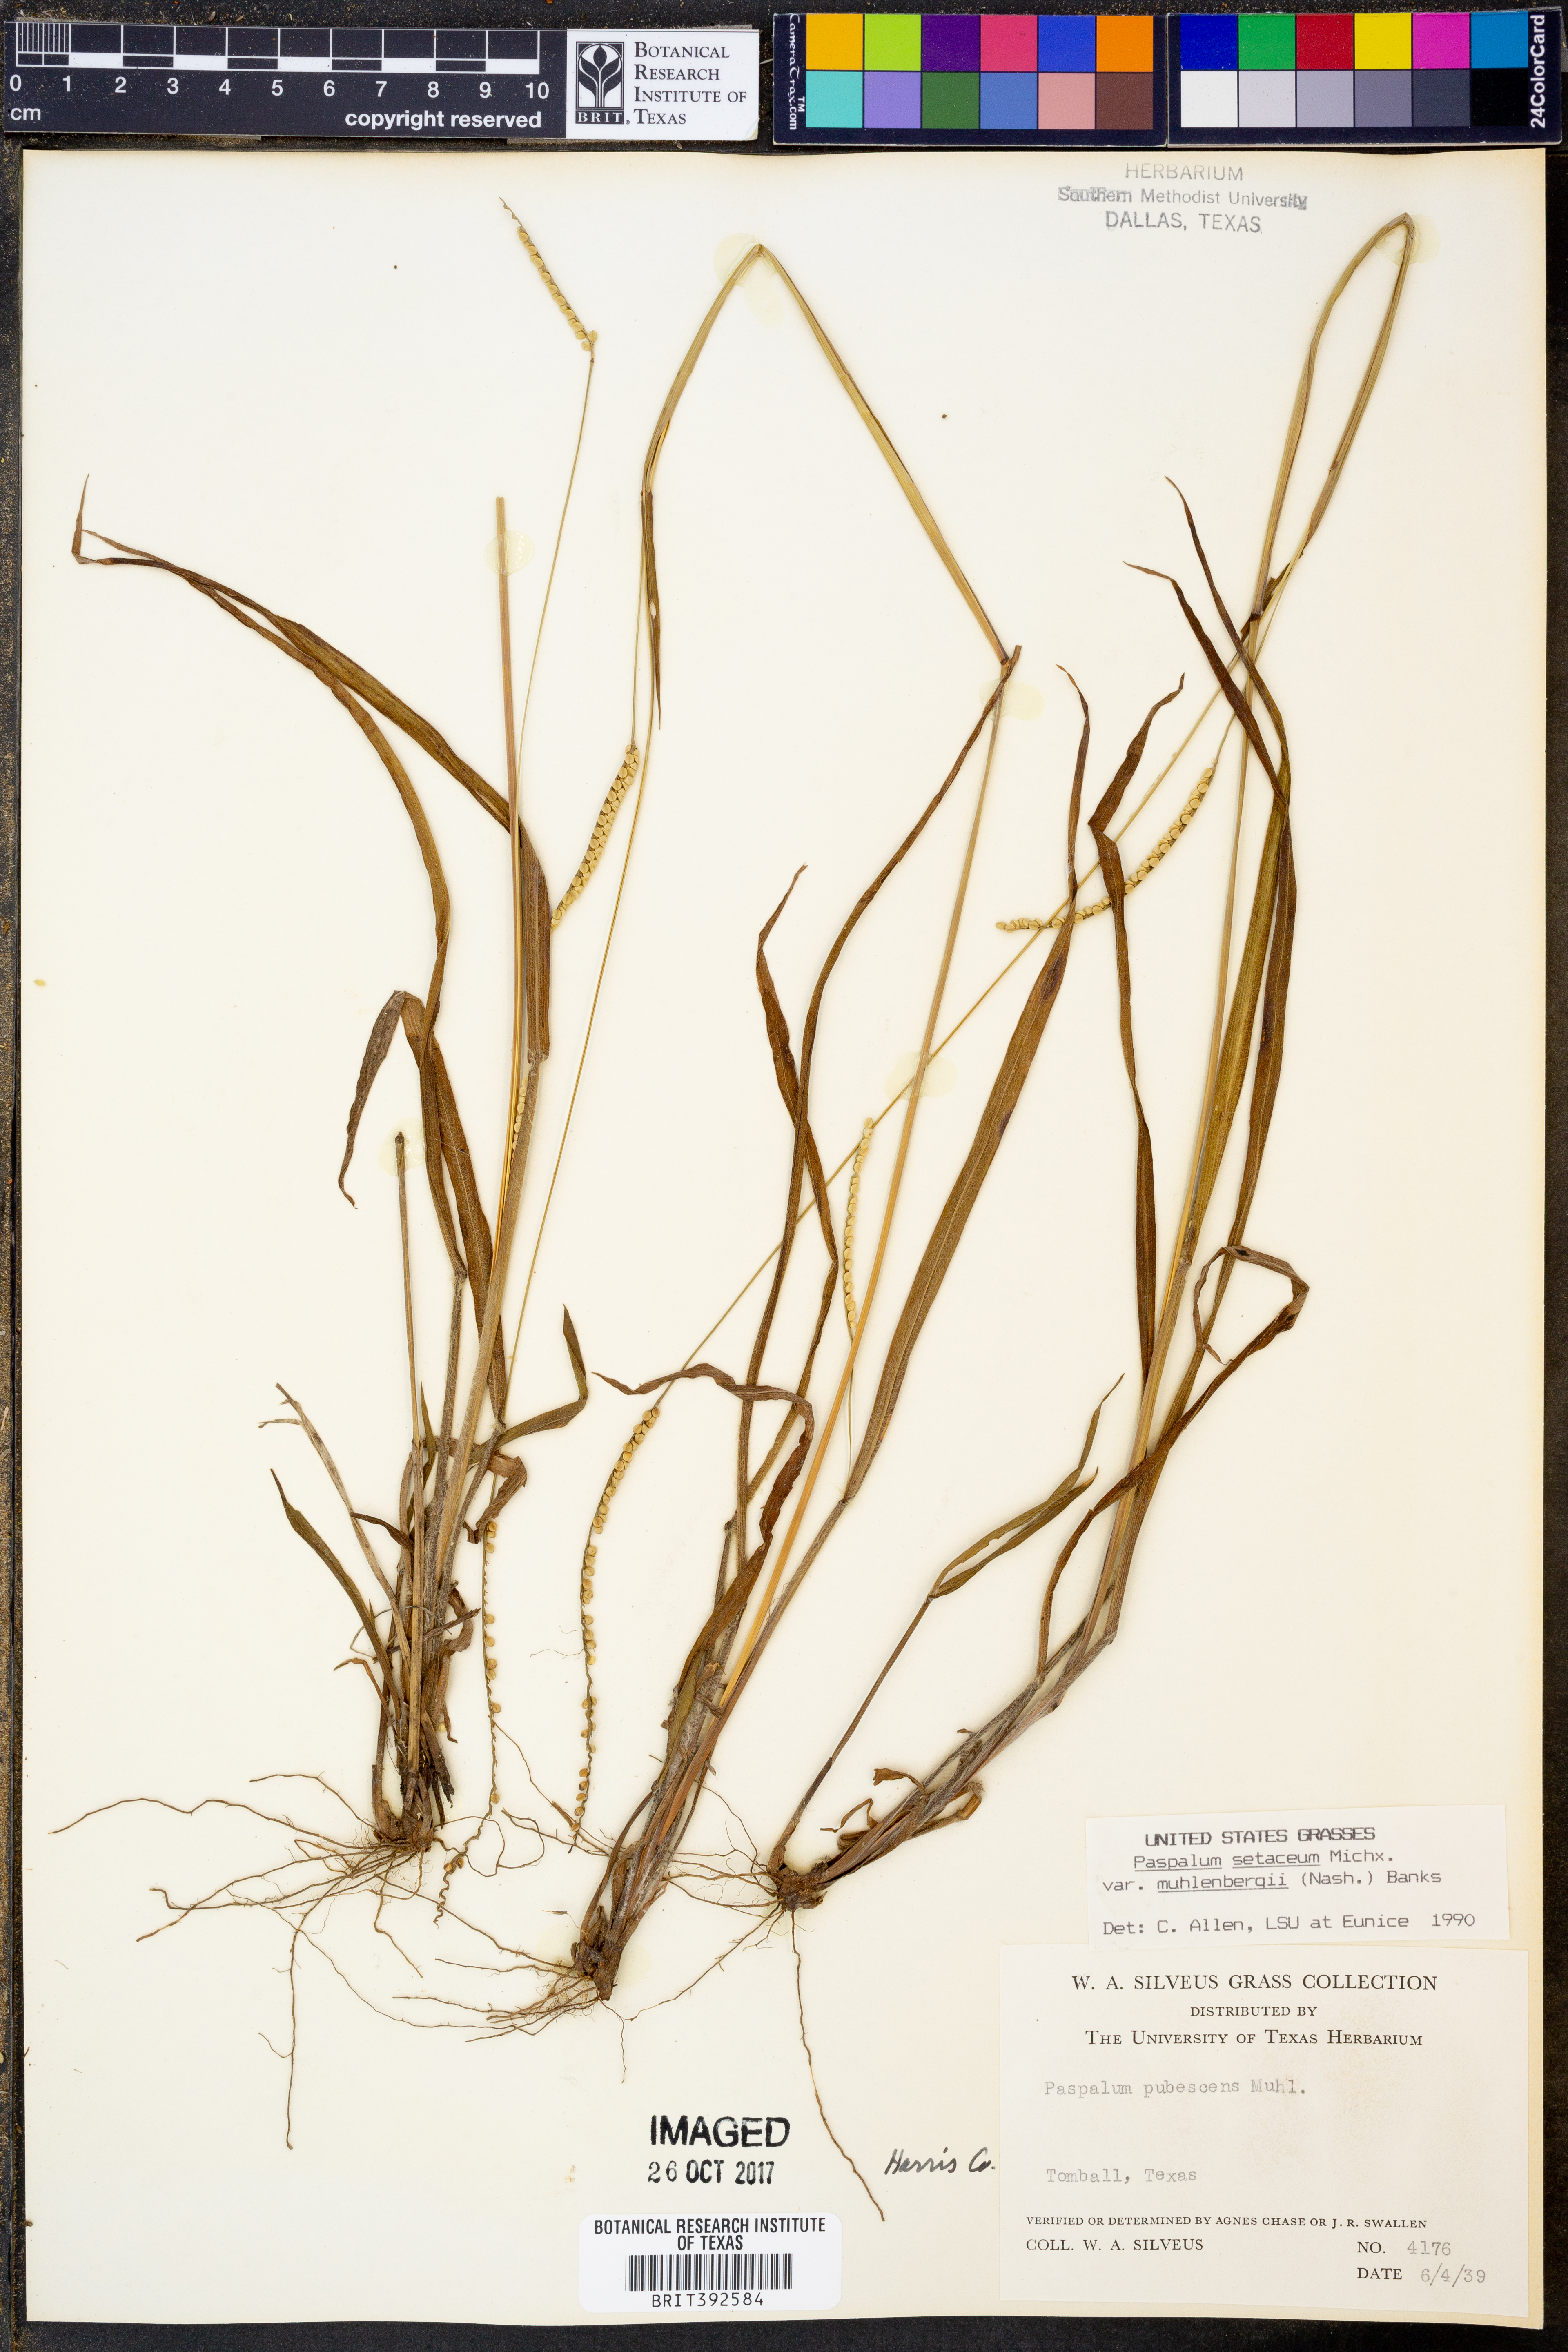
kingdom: Plantae
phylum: Tracheophyta
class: Liliopsida
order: Poales
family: Poaceae
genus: Paspalum
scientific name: Paspalum setaceum
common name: Slender paspalum
